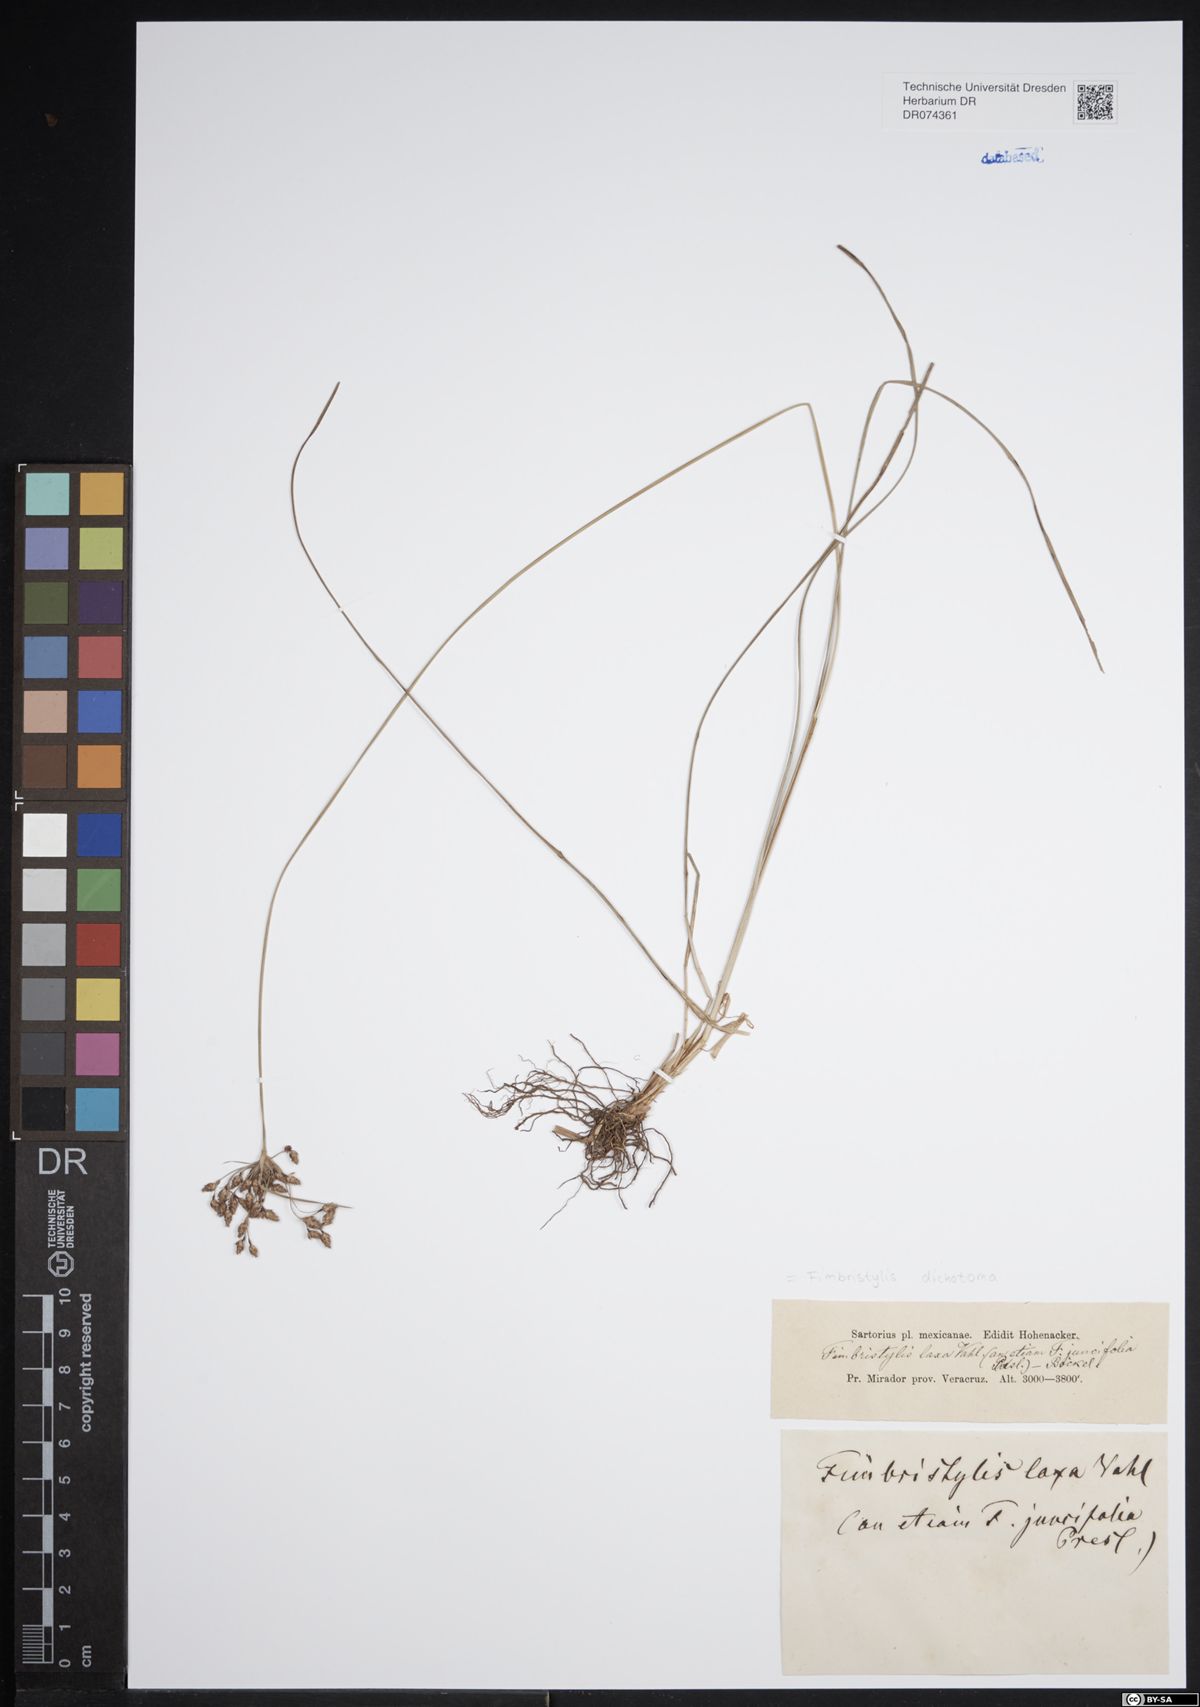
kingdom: Plantae
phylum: Tracheophyta
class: Liliopsida
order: Poales
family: Cyperaceae
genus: Fimbristylis
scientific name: Fimbristylis dichotoma
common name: Forked fimbry
